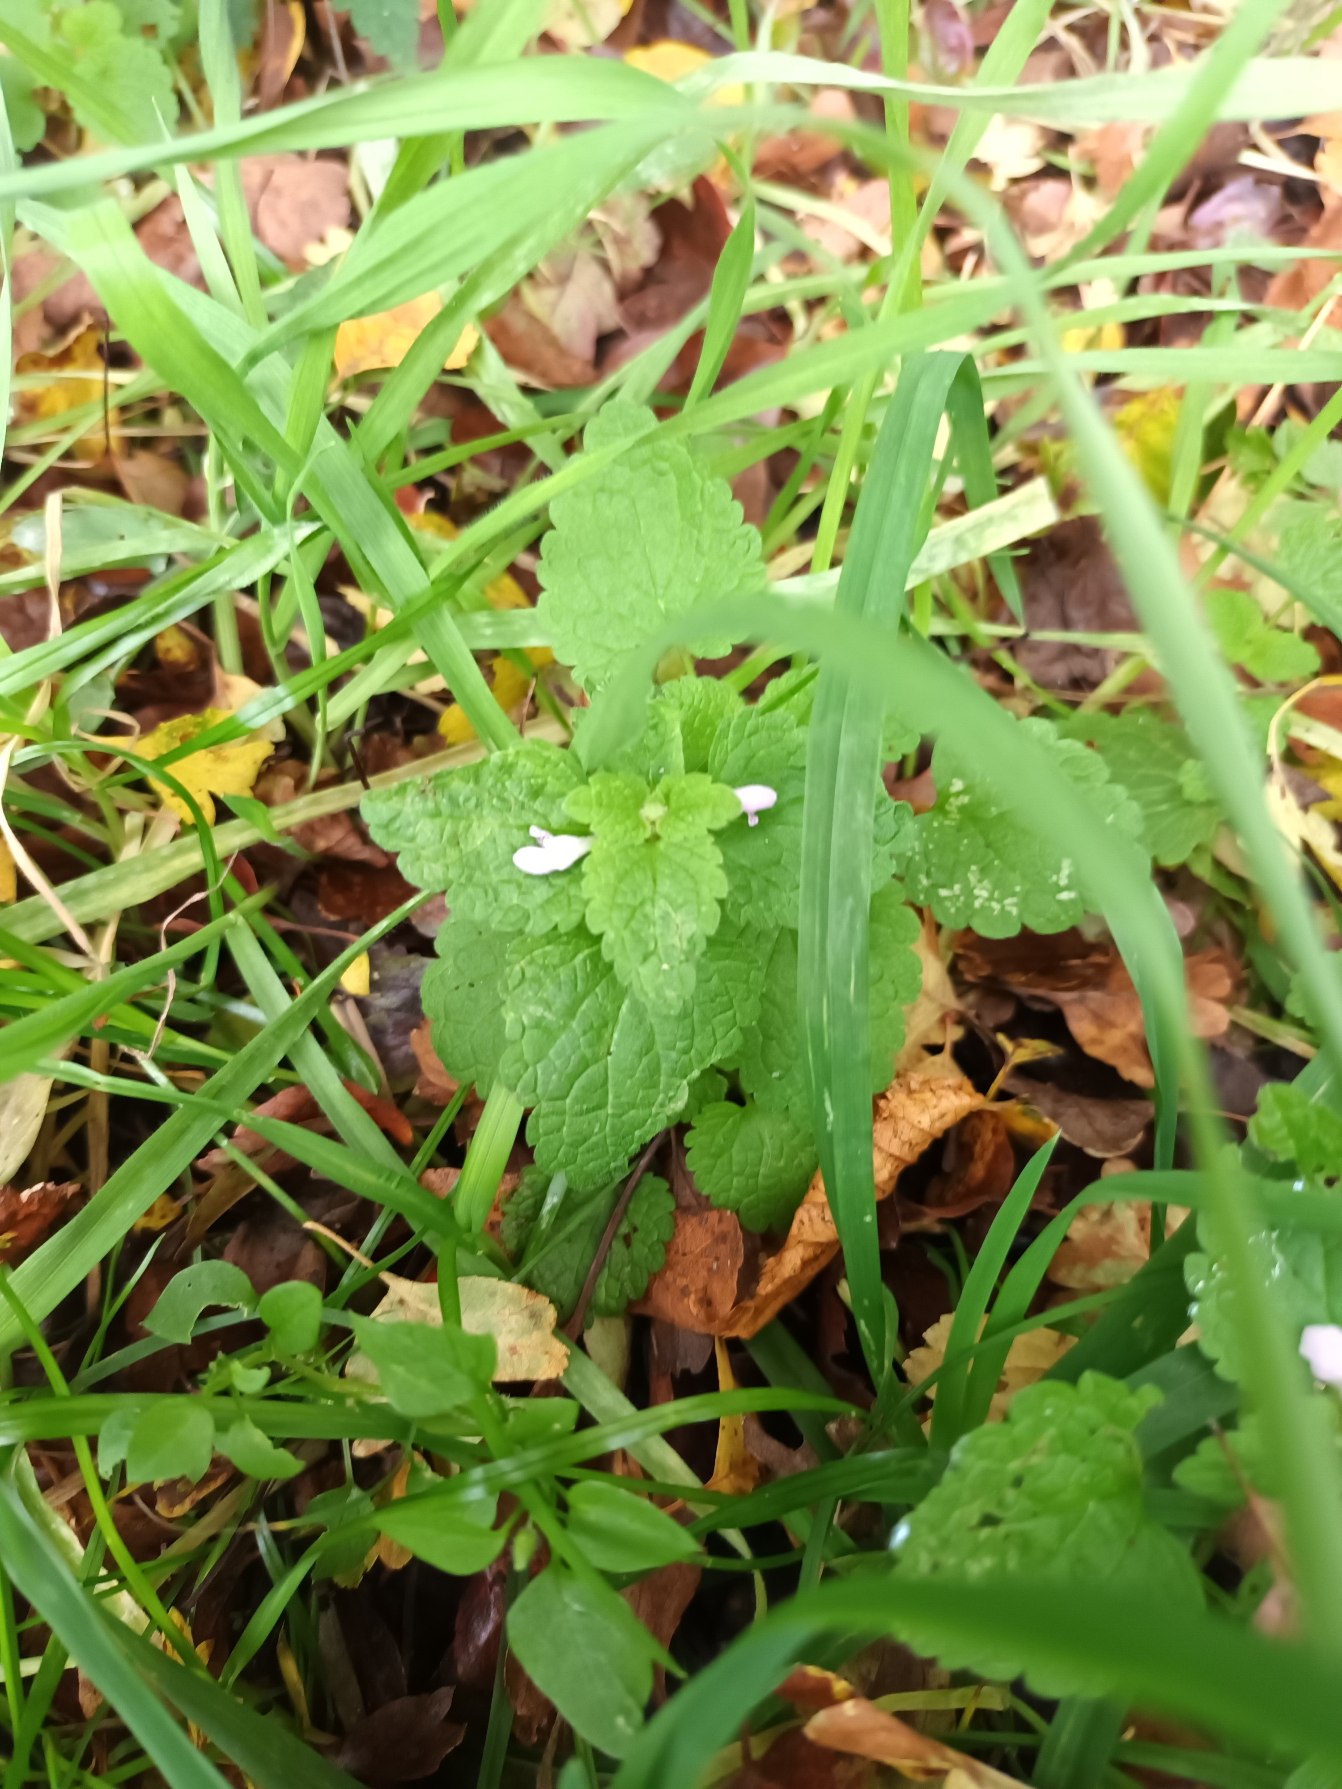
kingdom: Plantae
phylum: Tracheophyta
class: Magnoliopsida
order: Lamiales
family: Lamiaceae
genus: Lamium
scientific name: Lamium purpureum
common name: Rød tvetand
